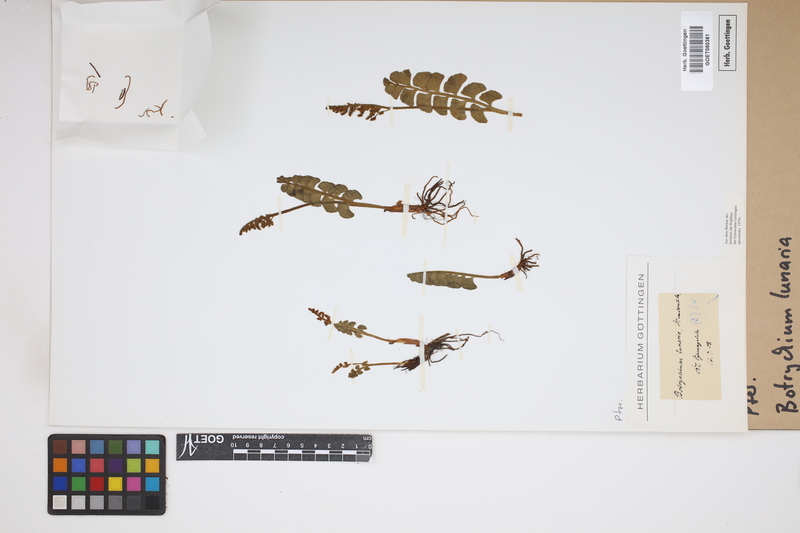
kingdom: Plantae
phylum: Tracheophyta
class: Polypodiopsida
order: Ophioglossales
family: Ophioglossaceae
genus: Botrychium
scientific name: Botrychium lunaria
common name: Moonwort
